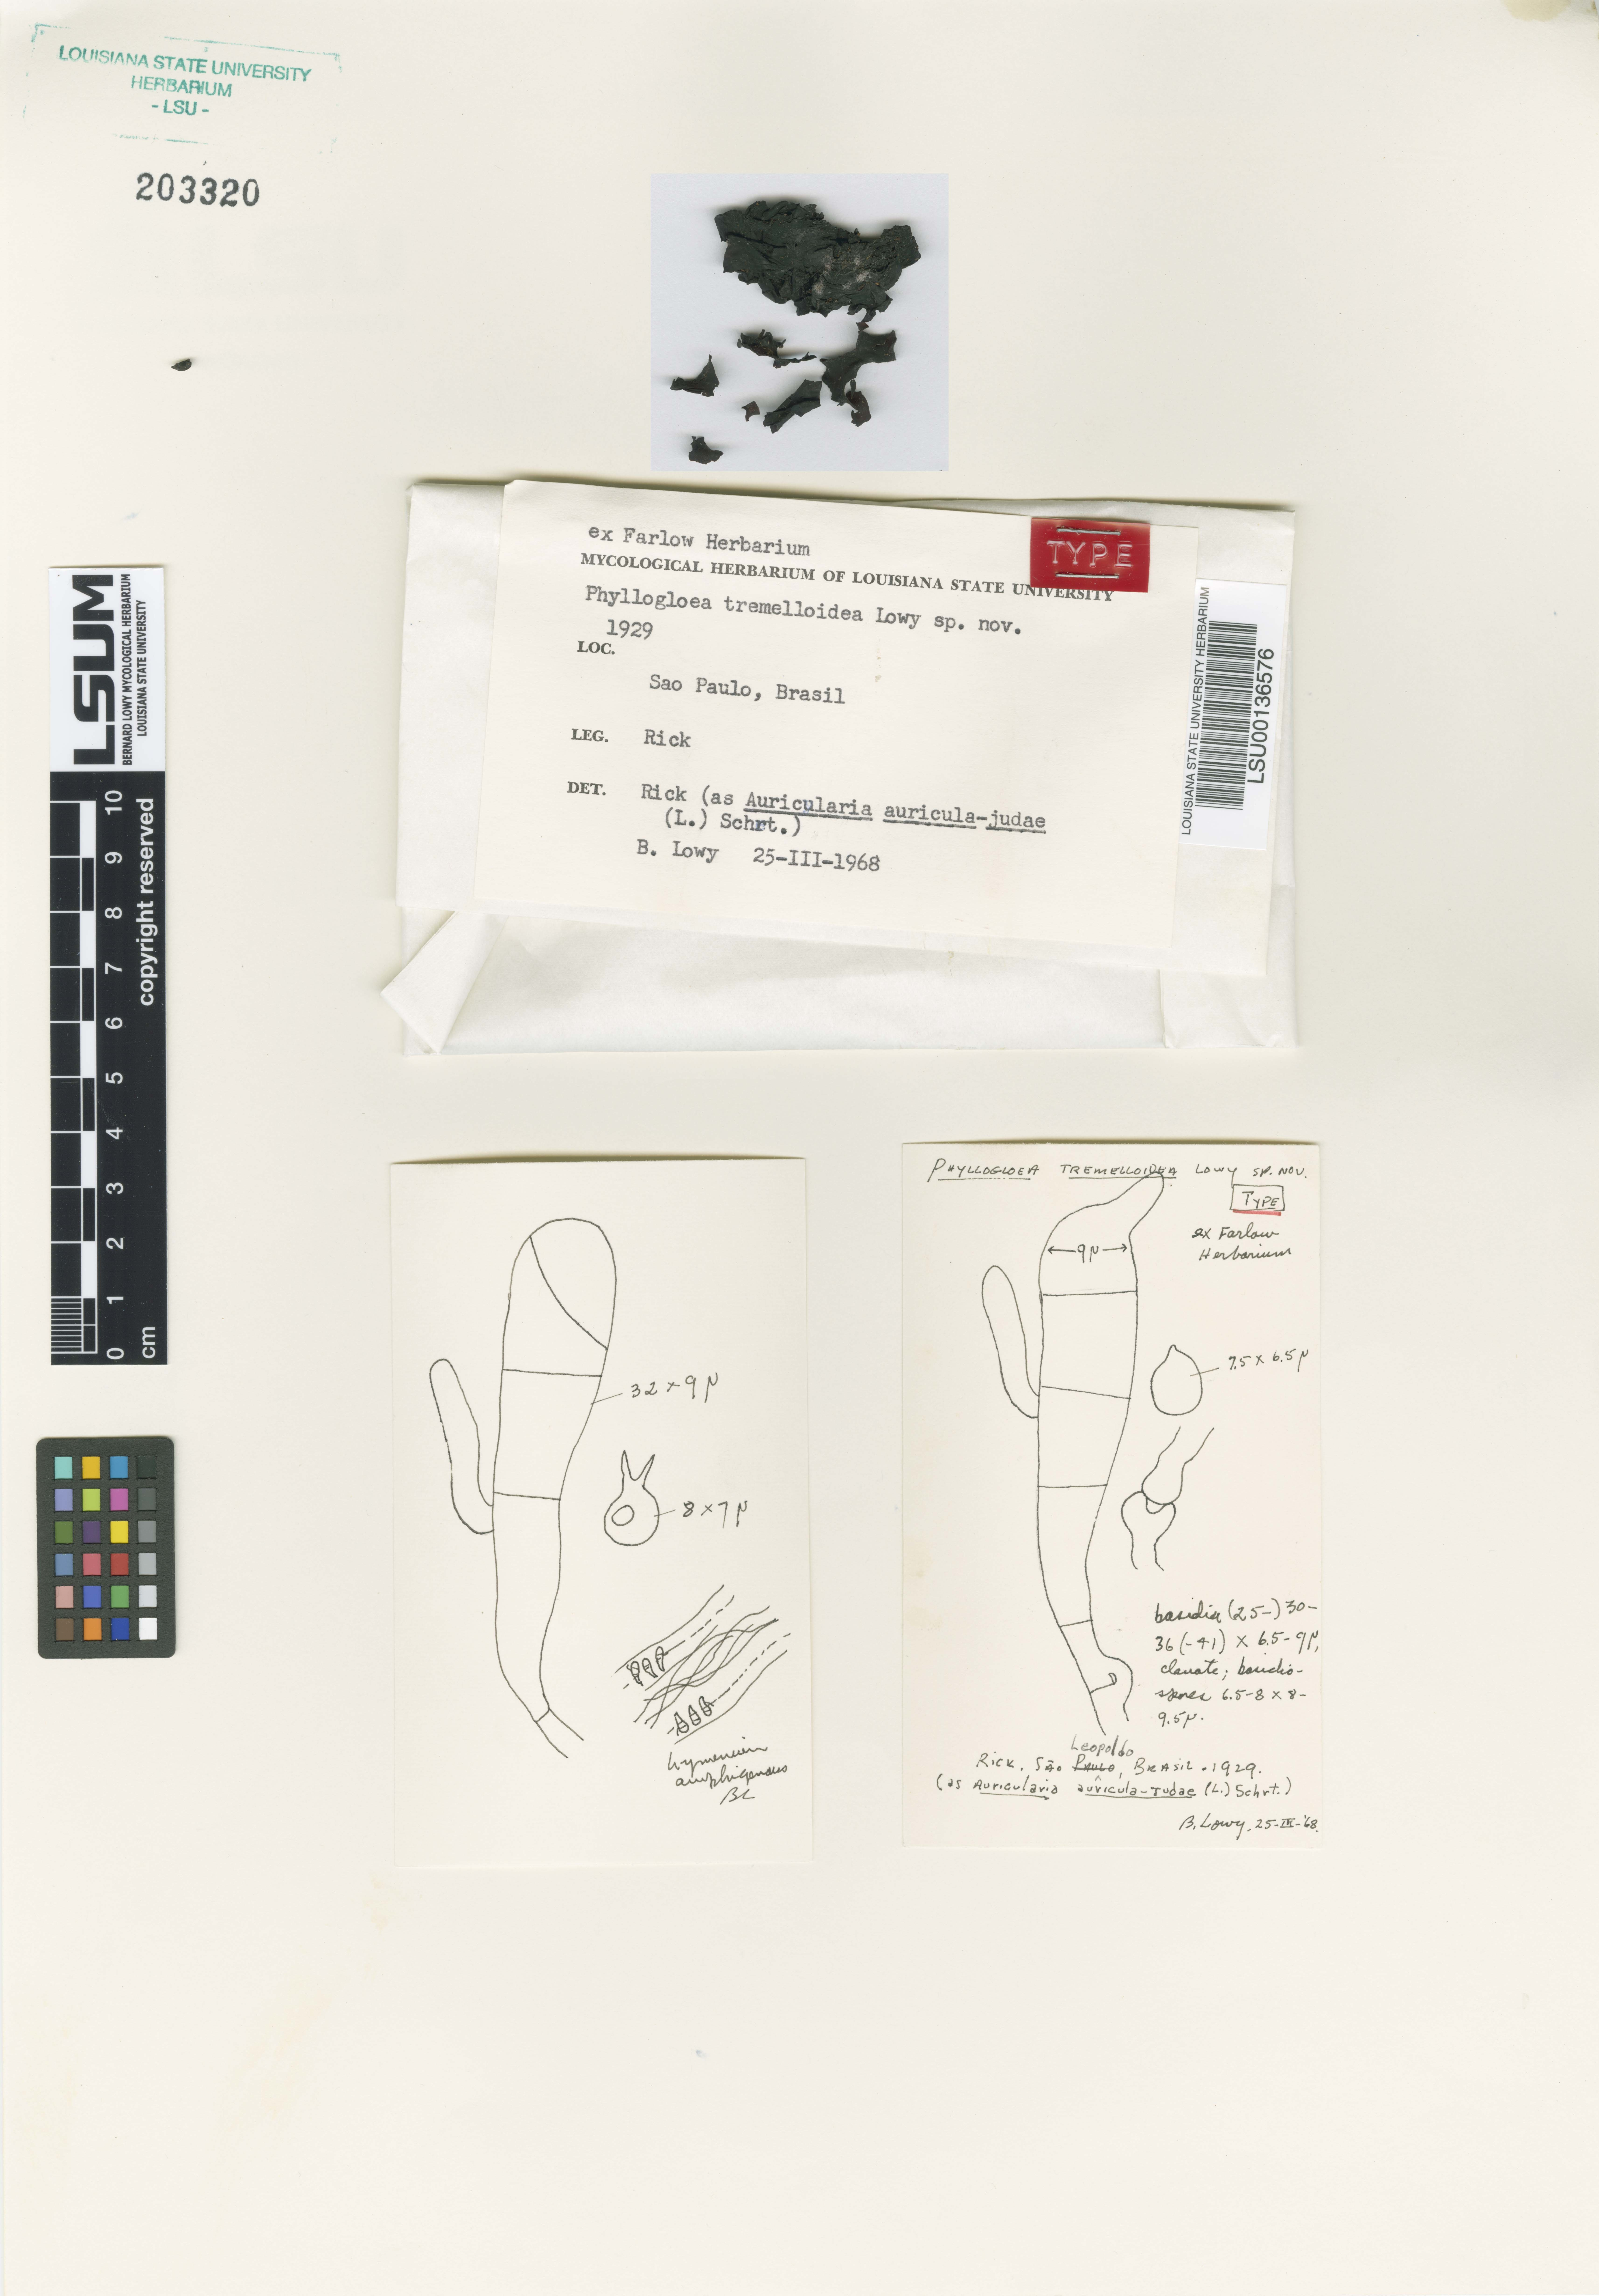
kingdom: Fungi
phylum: Basidiomycota
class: Pucciniomycetes
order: Platygloeales
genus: Phyllogloea
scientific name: Phyllogloea tremelloidea
